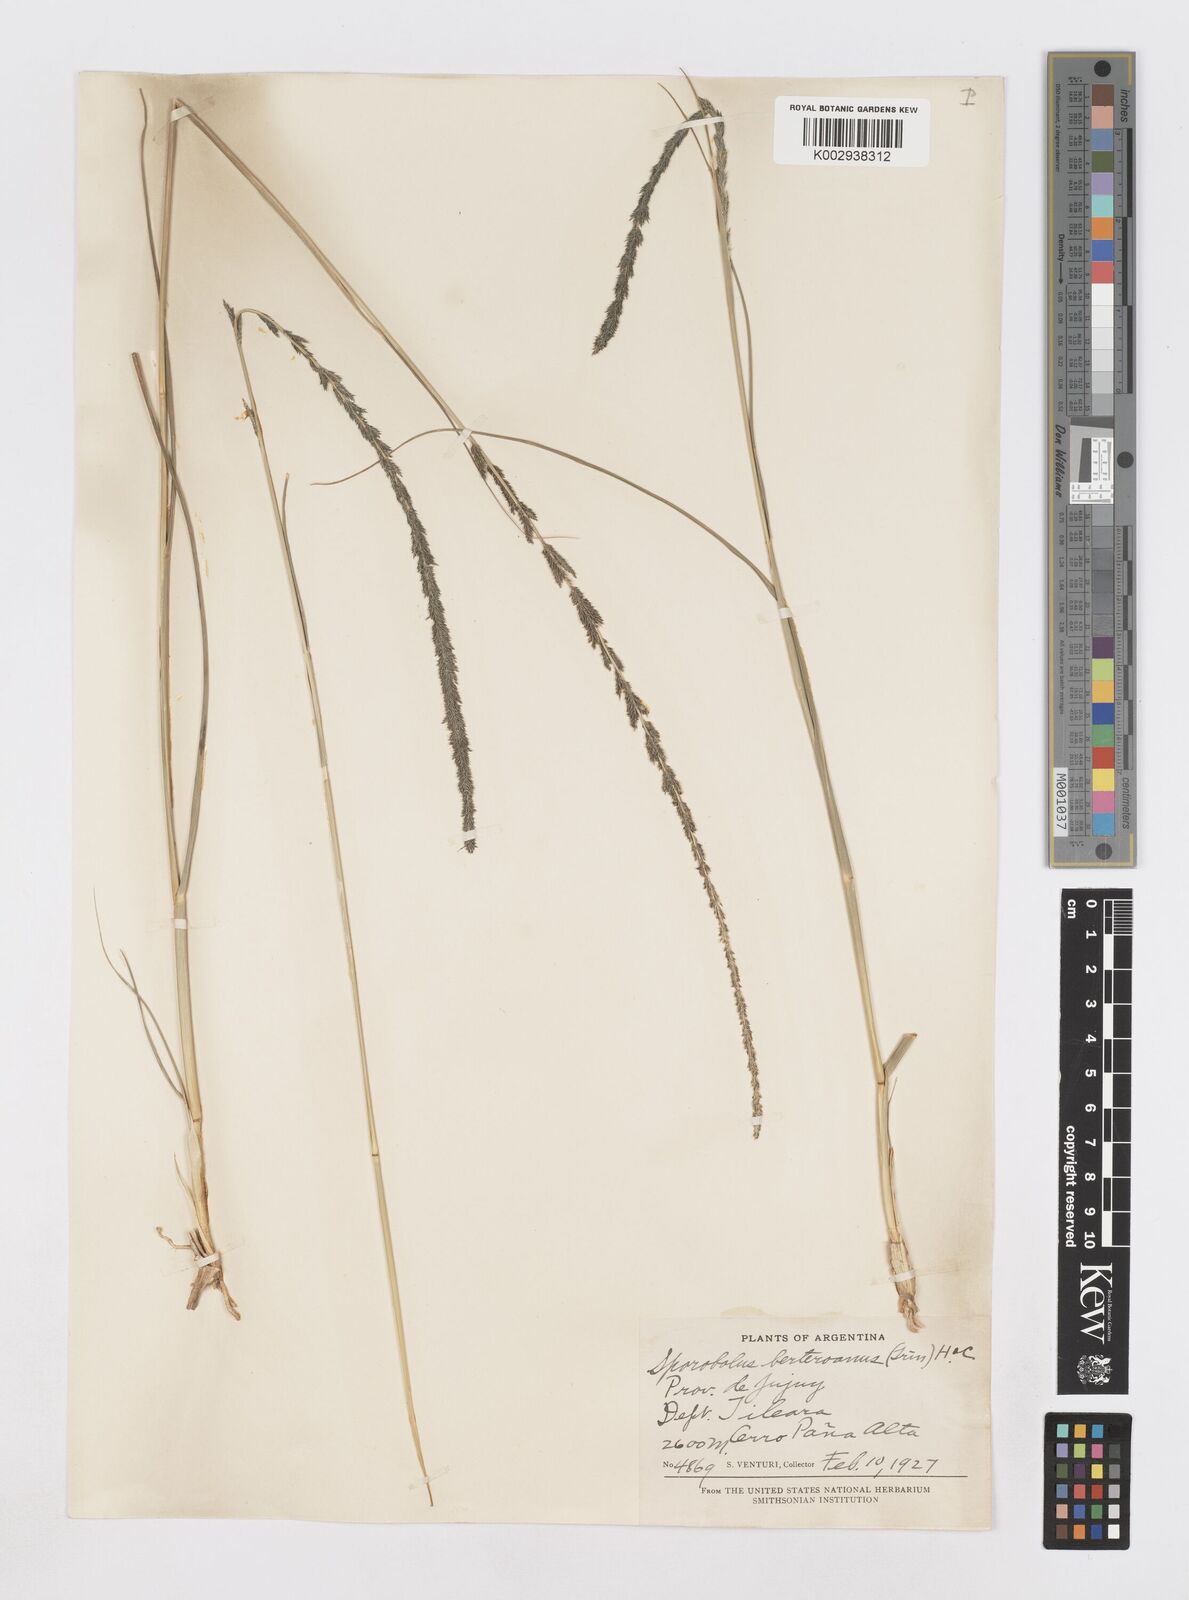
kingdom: Plantae
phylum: Tracheophyta
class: Liliopsida
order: Poales
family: Poaceae
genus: Sporobolus
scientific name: Sporobolus indicus
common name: Smut grass
